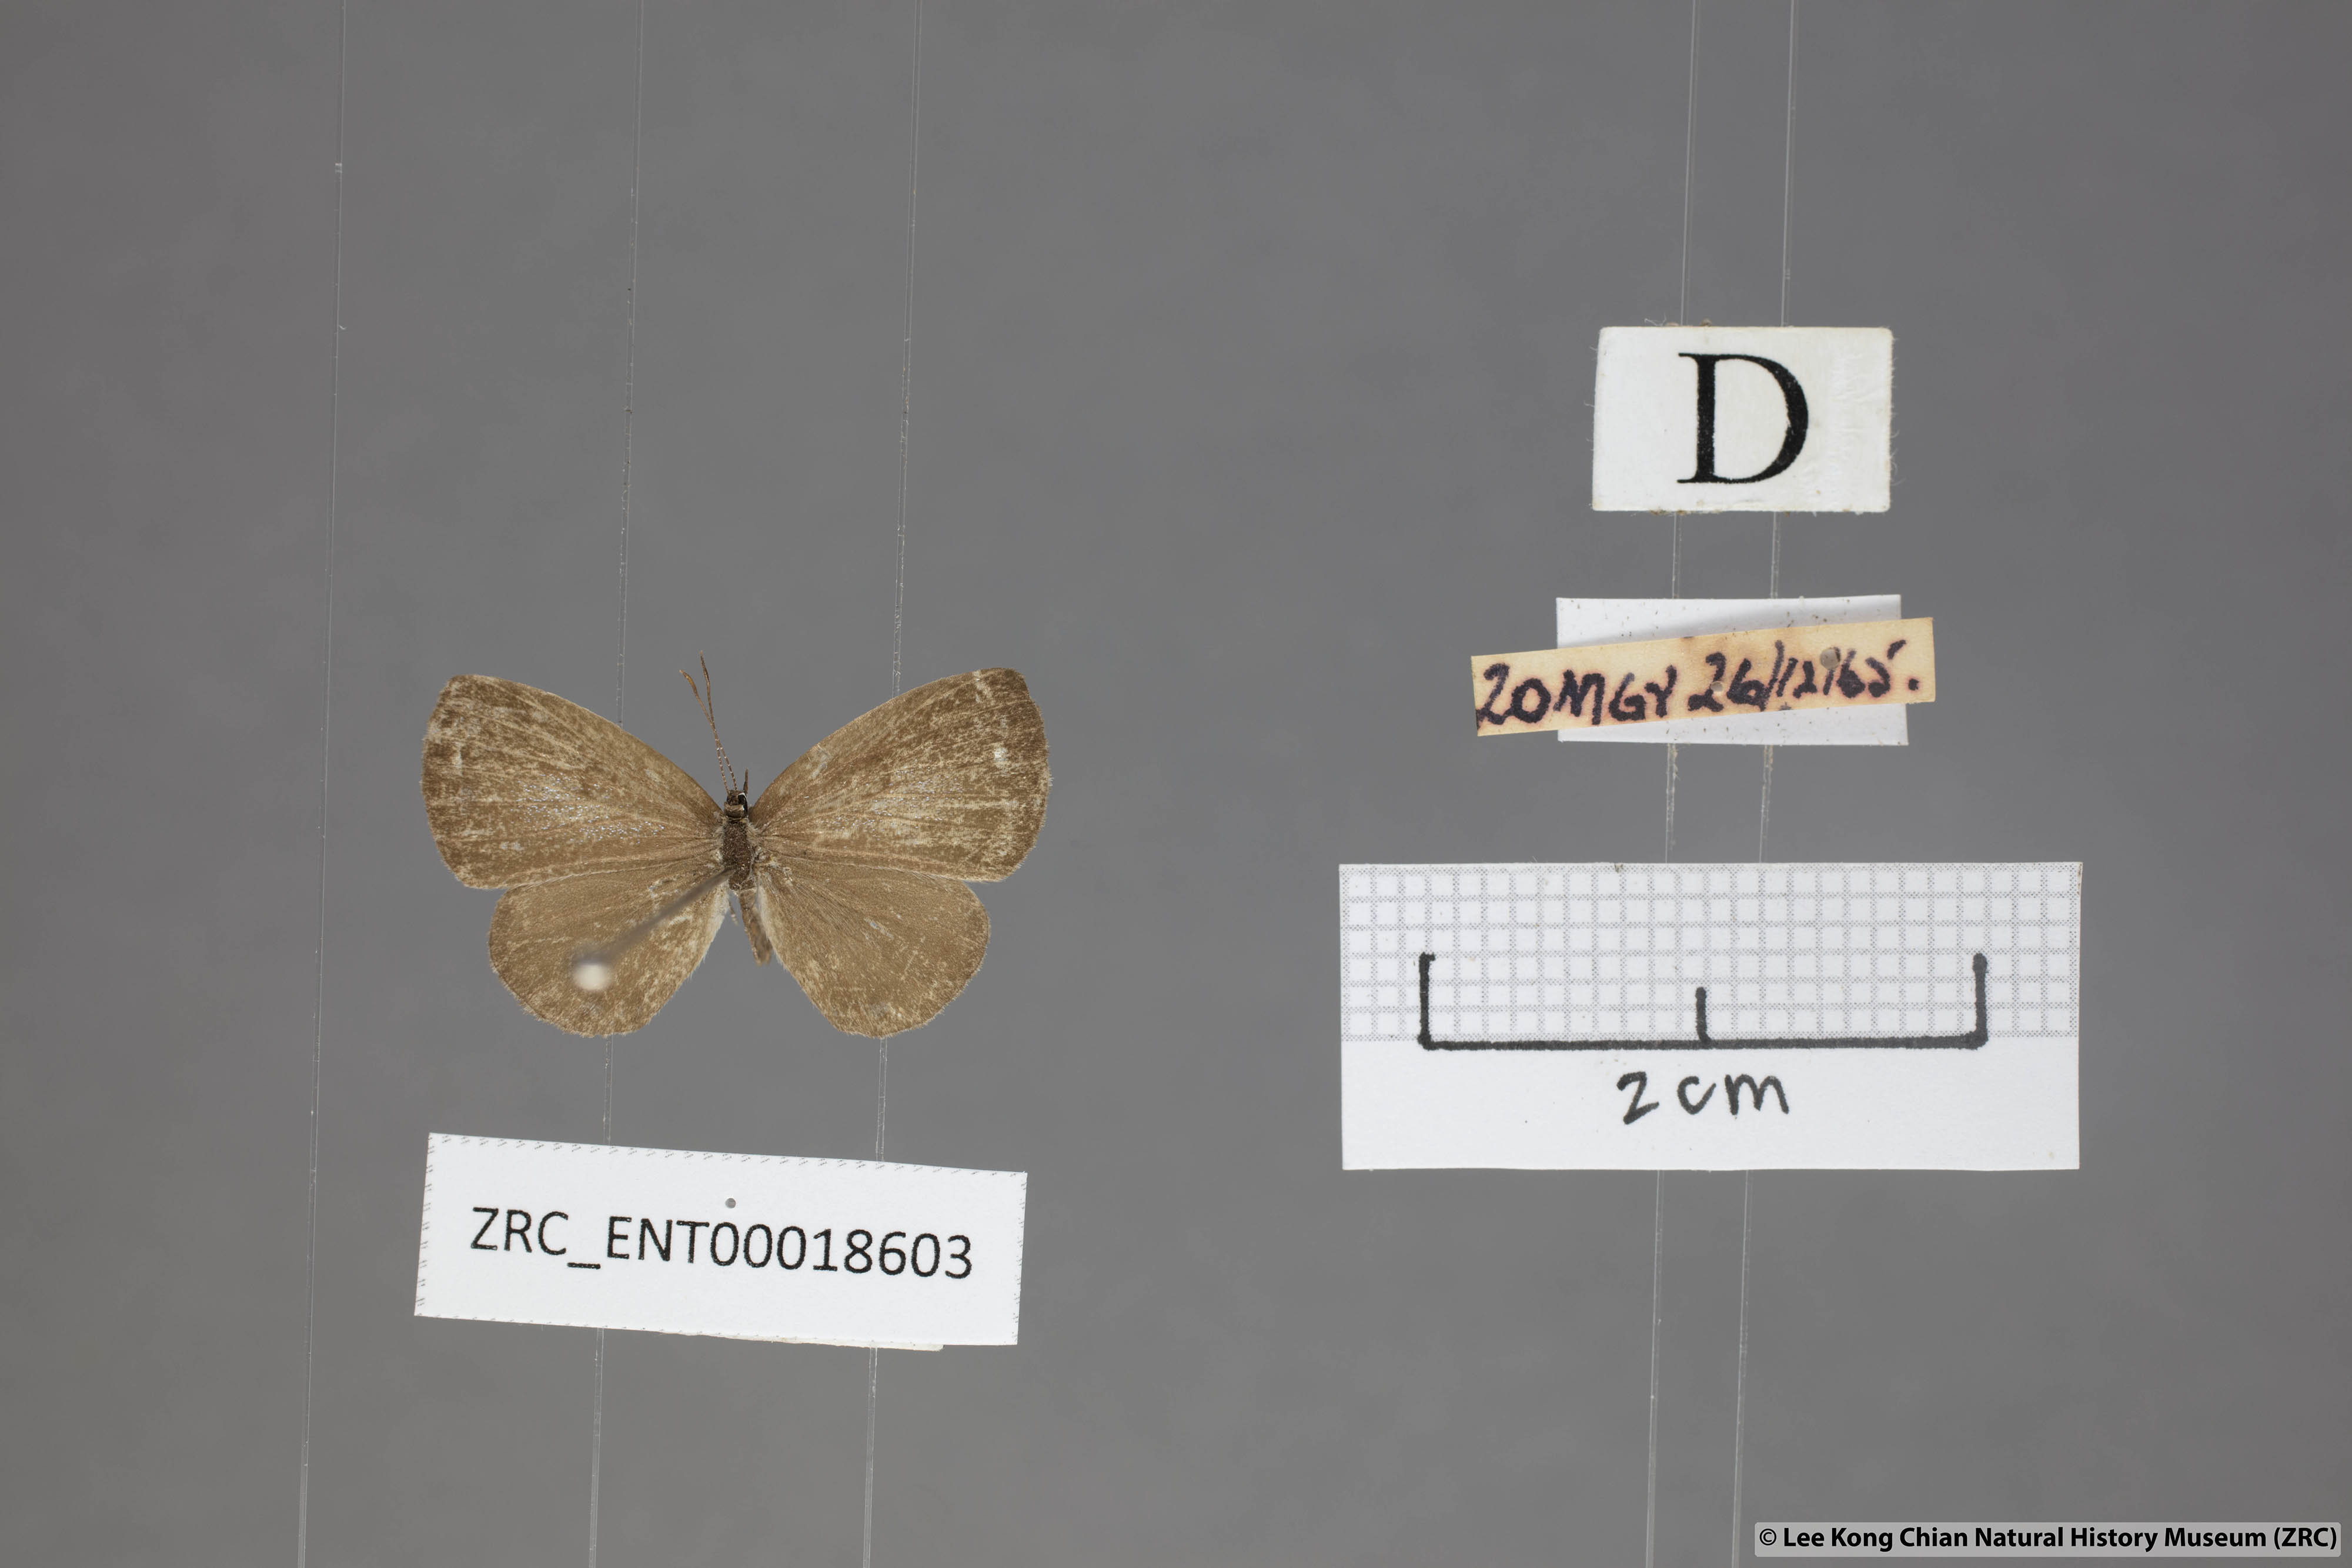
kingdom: Animalia
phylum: Arthropoda
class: Insecta
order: Lepidoptera
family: Lycaenidae
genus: Prosotas
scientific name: Prosotas lutea
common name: Brown lineblue
